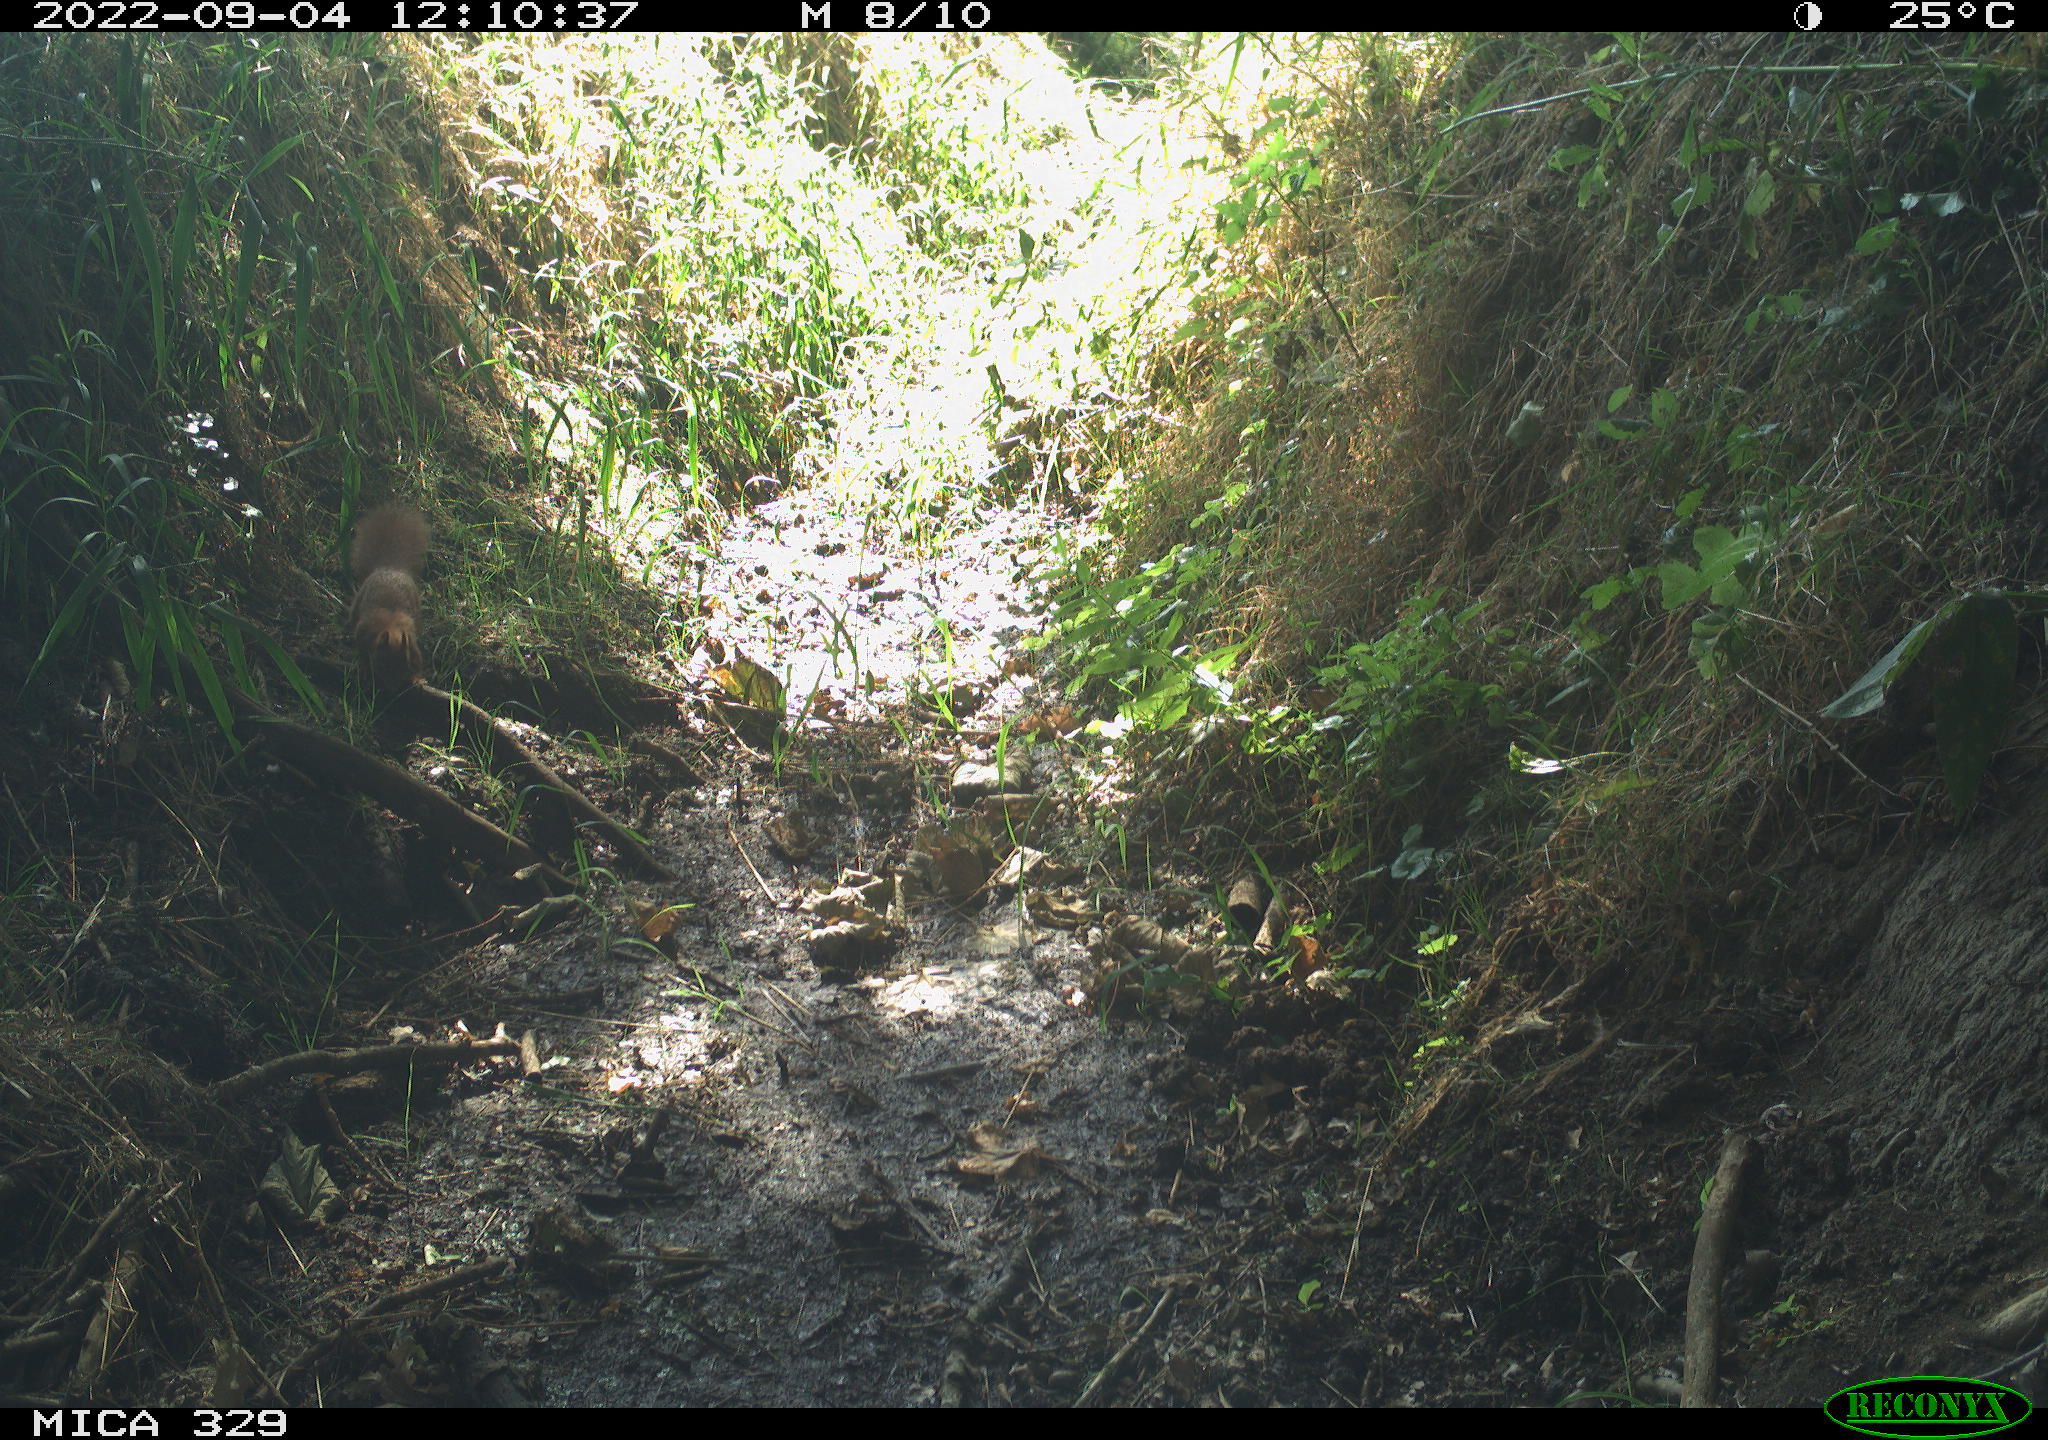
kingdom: Animalia
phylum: Chordata
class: Mammalia
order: Rodentia
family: Sciuridae
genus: Sciurus
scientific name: Sciurus vulgaris
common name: Eurasian red squirrel
